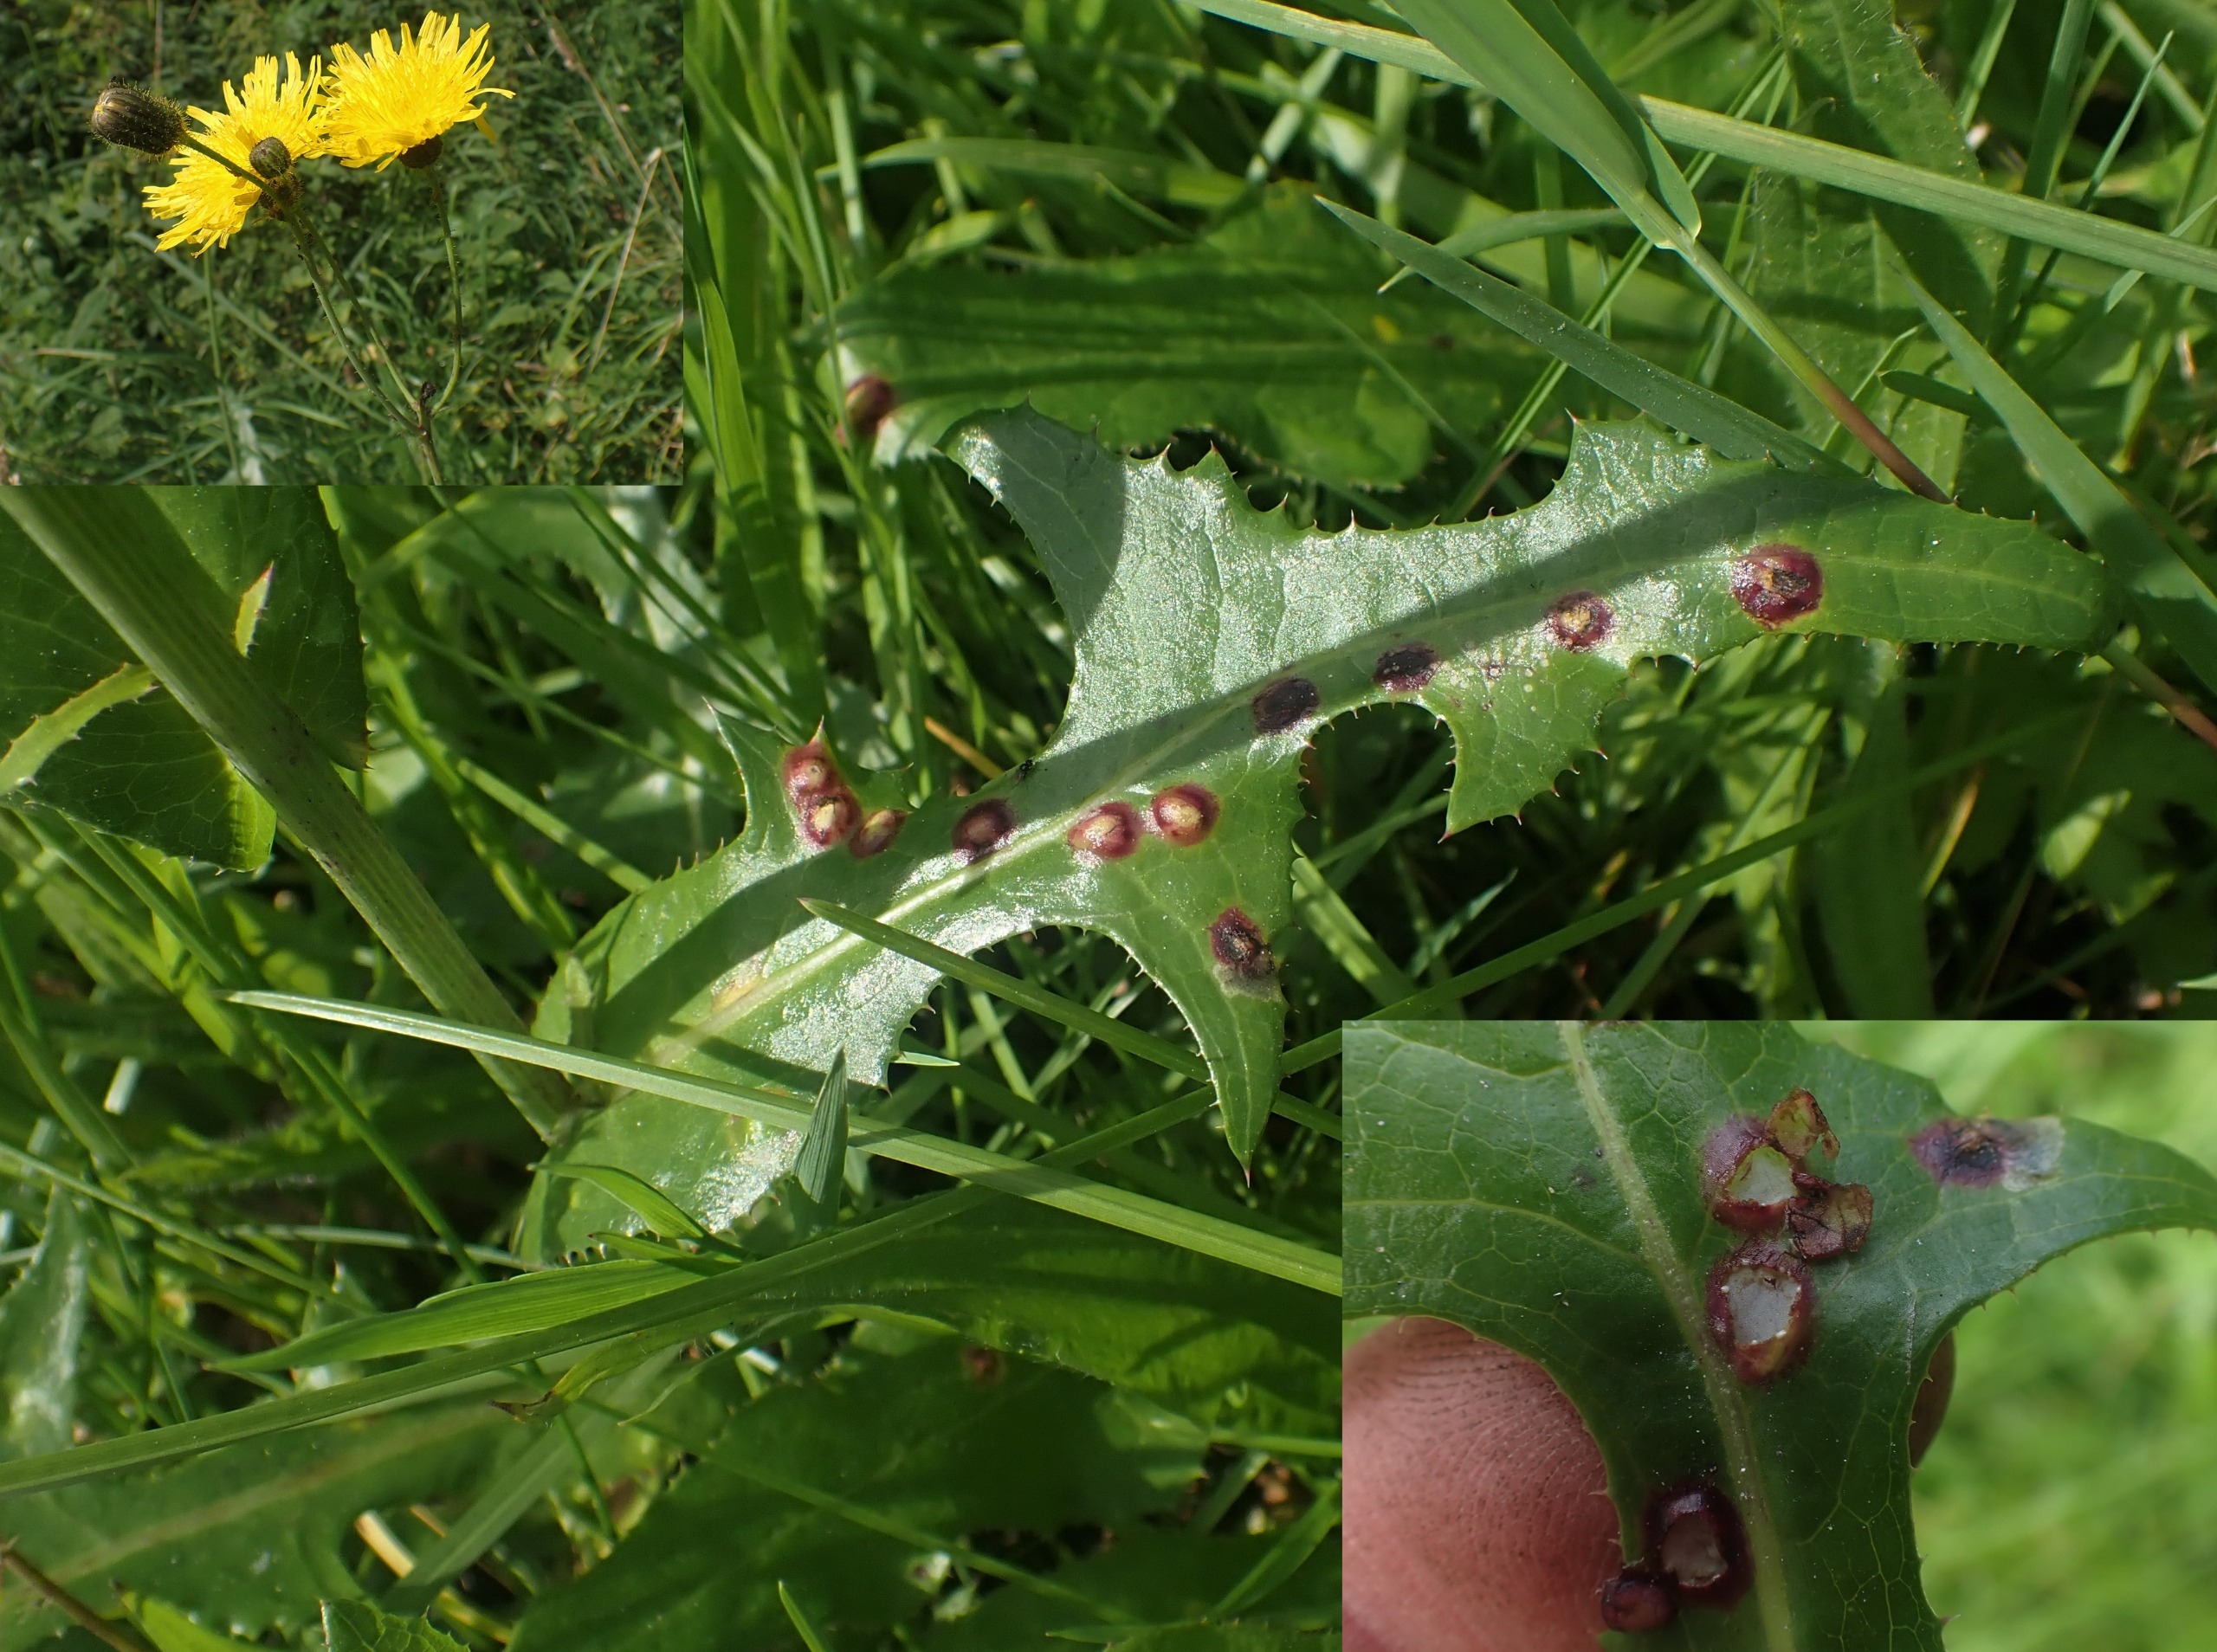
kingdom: Animalia
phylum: Arthropoda
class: Insecta
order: Diptera
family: Cecidomyiidae
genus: Cystiphora
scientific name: Cystiphora sonchi
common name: Svineblæregalmyg
